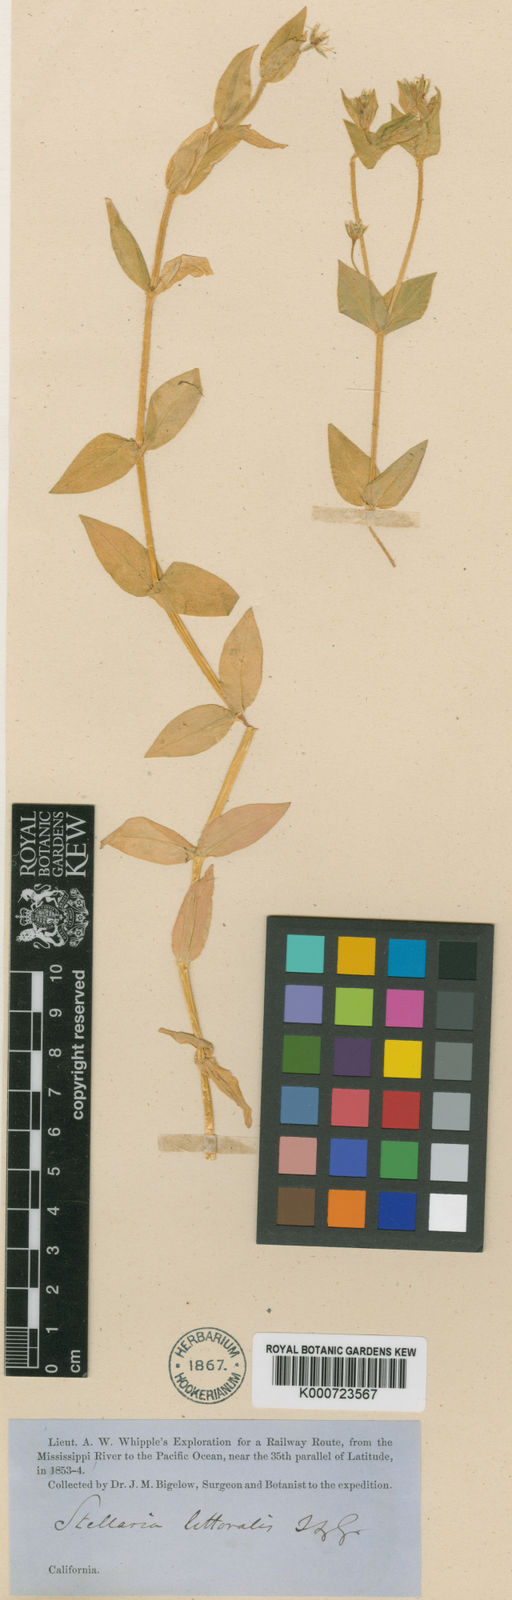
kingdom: Plantae
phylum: Tracheophyta
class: Magnoliopsida
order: Caryophyllales
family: Caryophyllaceae
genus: Stellaria
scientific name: Stellaria littoralis
